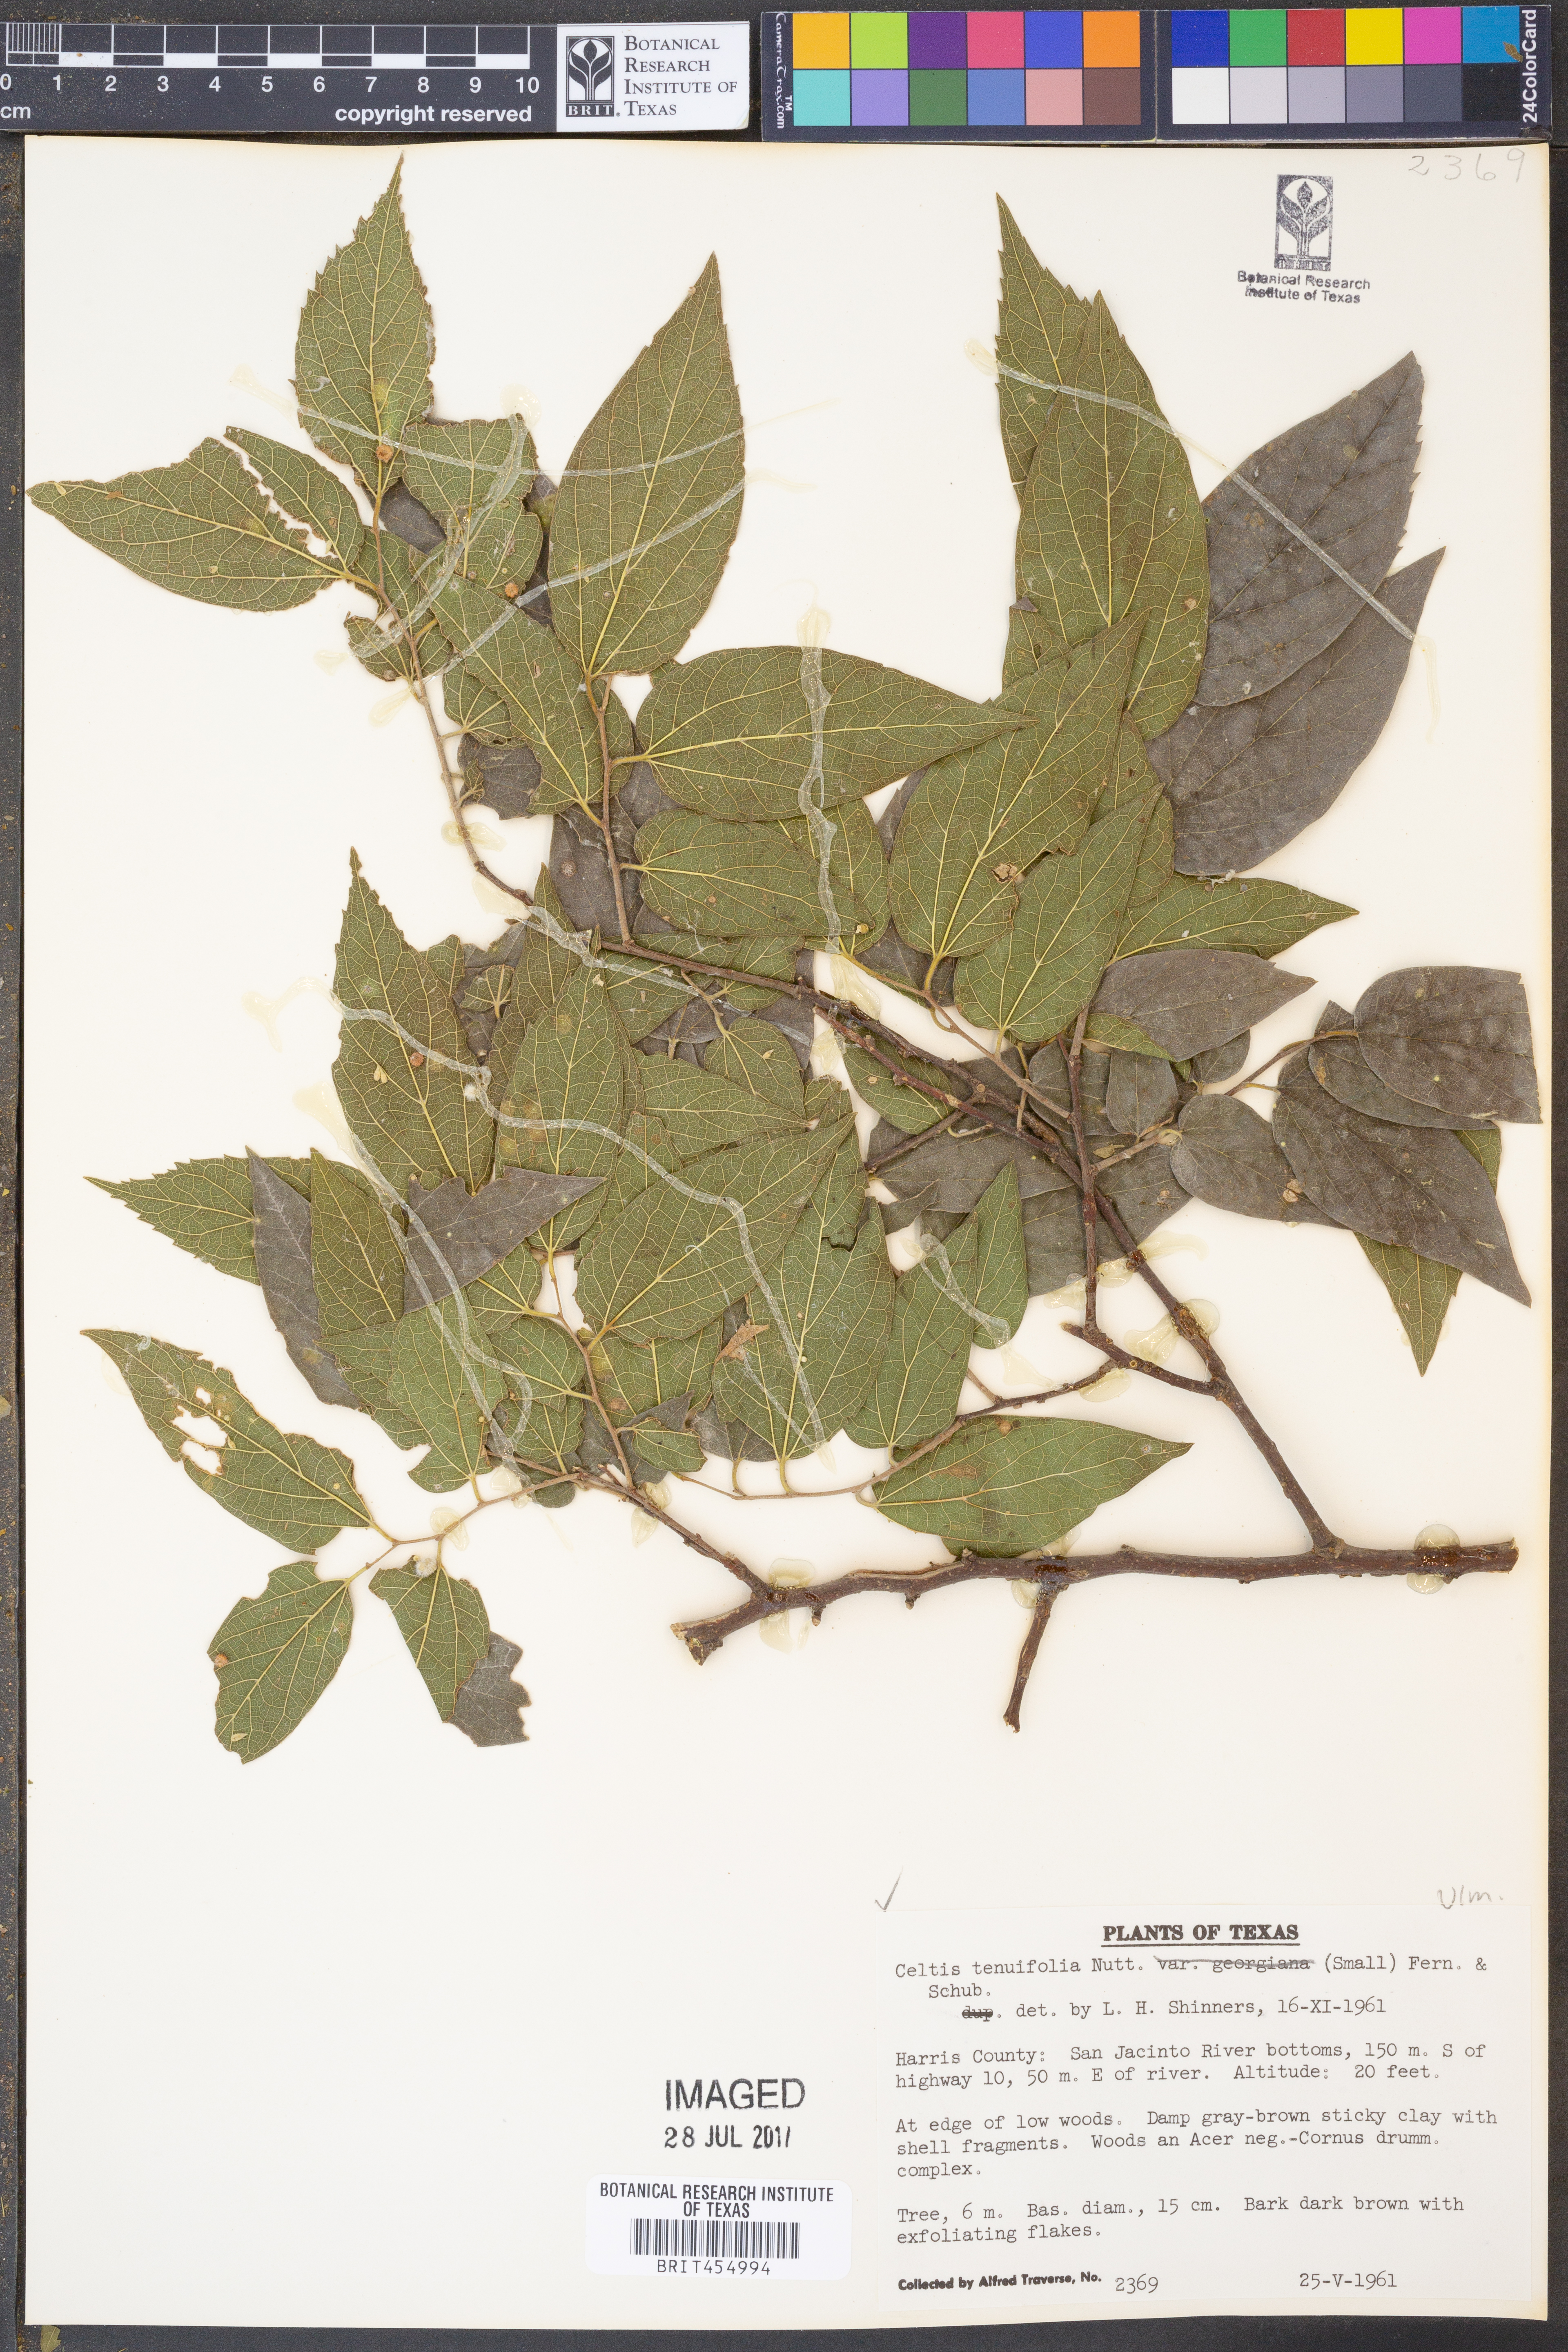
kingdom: Plantae
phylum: Tracheophyta
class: Magnoliopsida
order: Rosales
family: Cannabaceae
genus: Celtis
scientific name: Celtis tenuifolia
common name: Georgia hackberry
